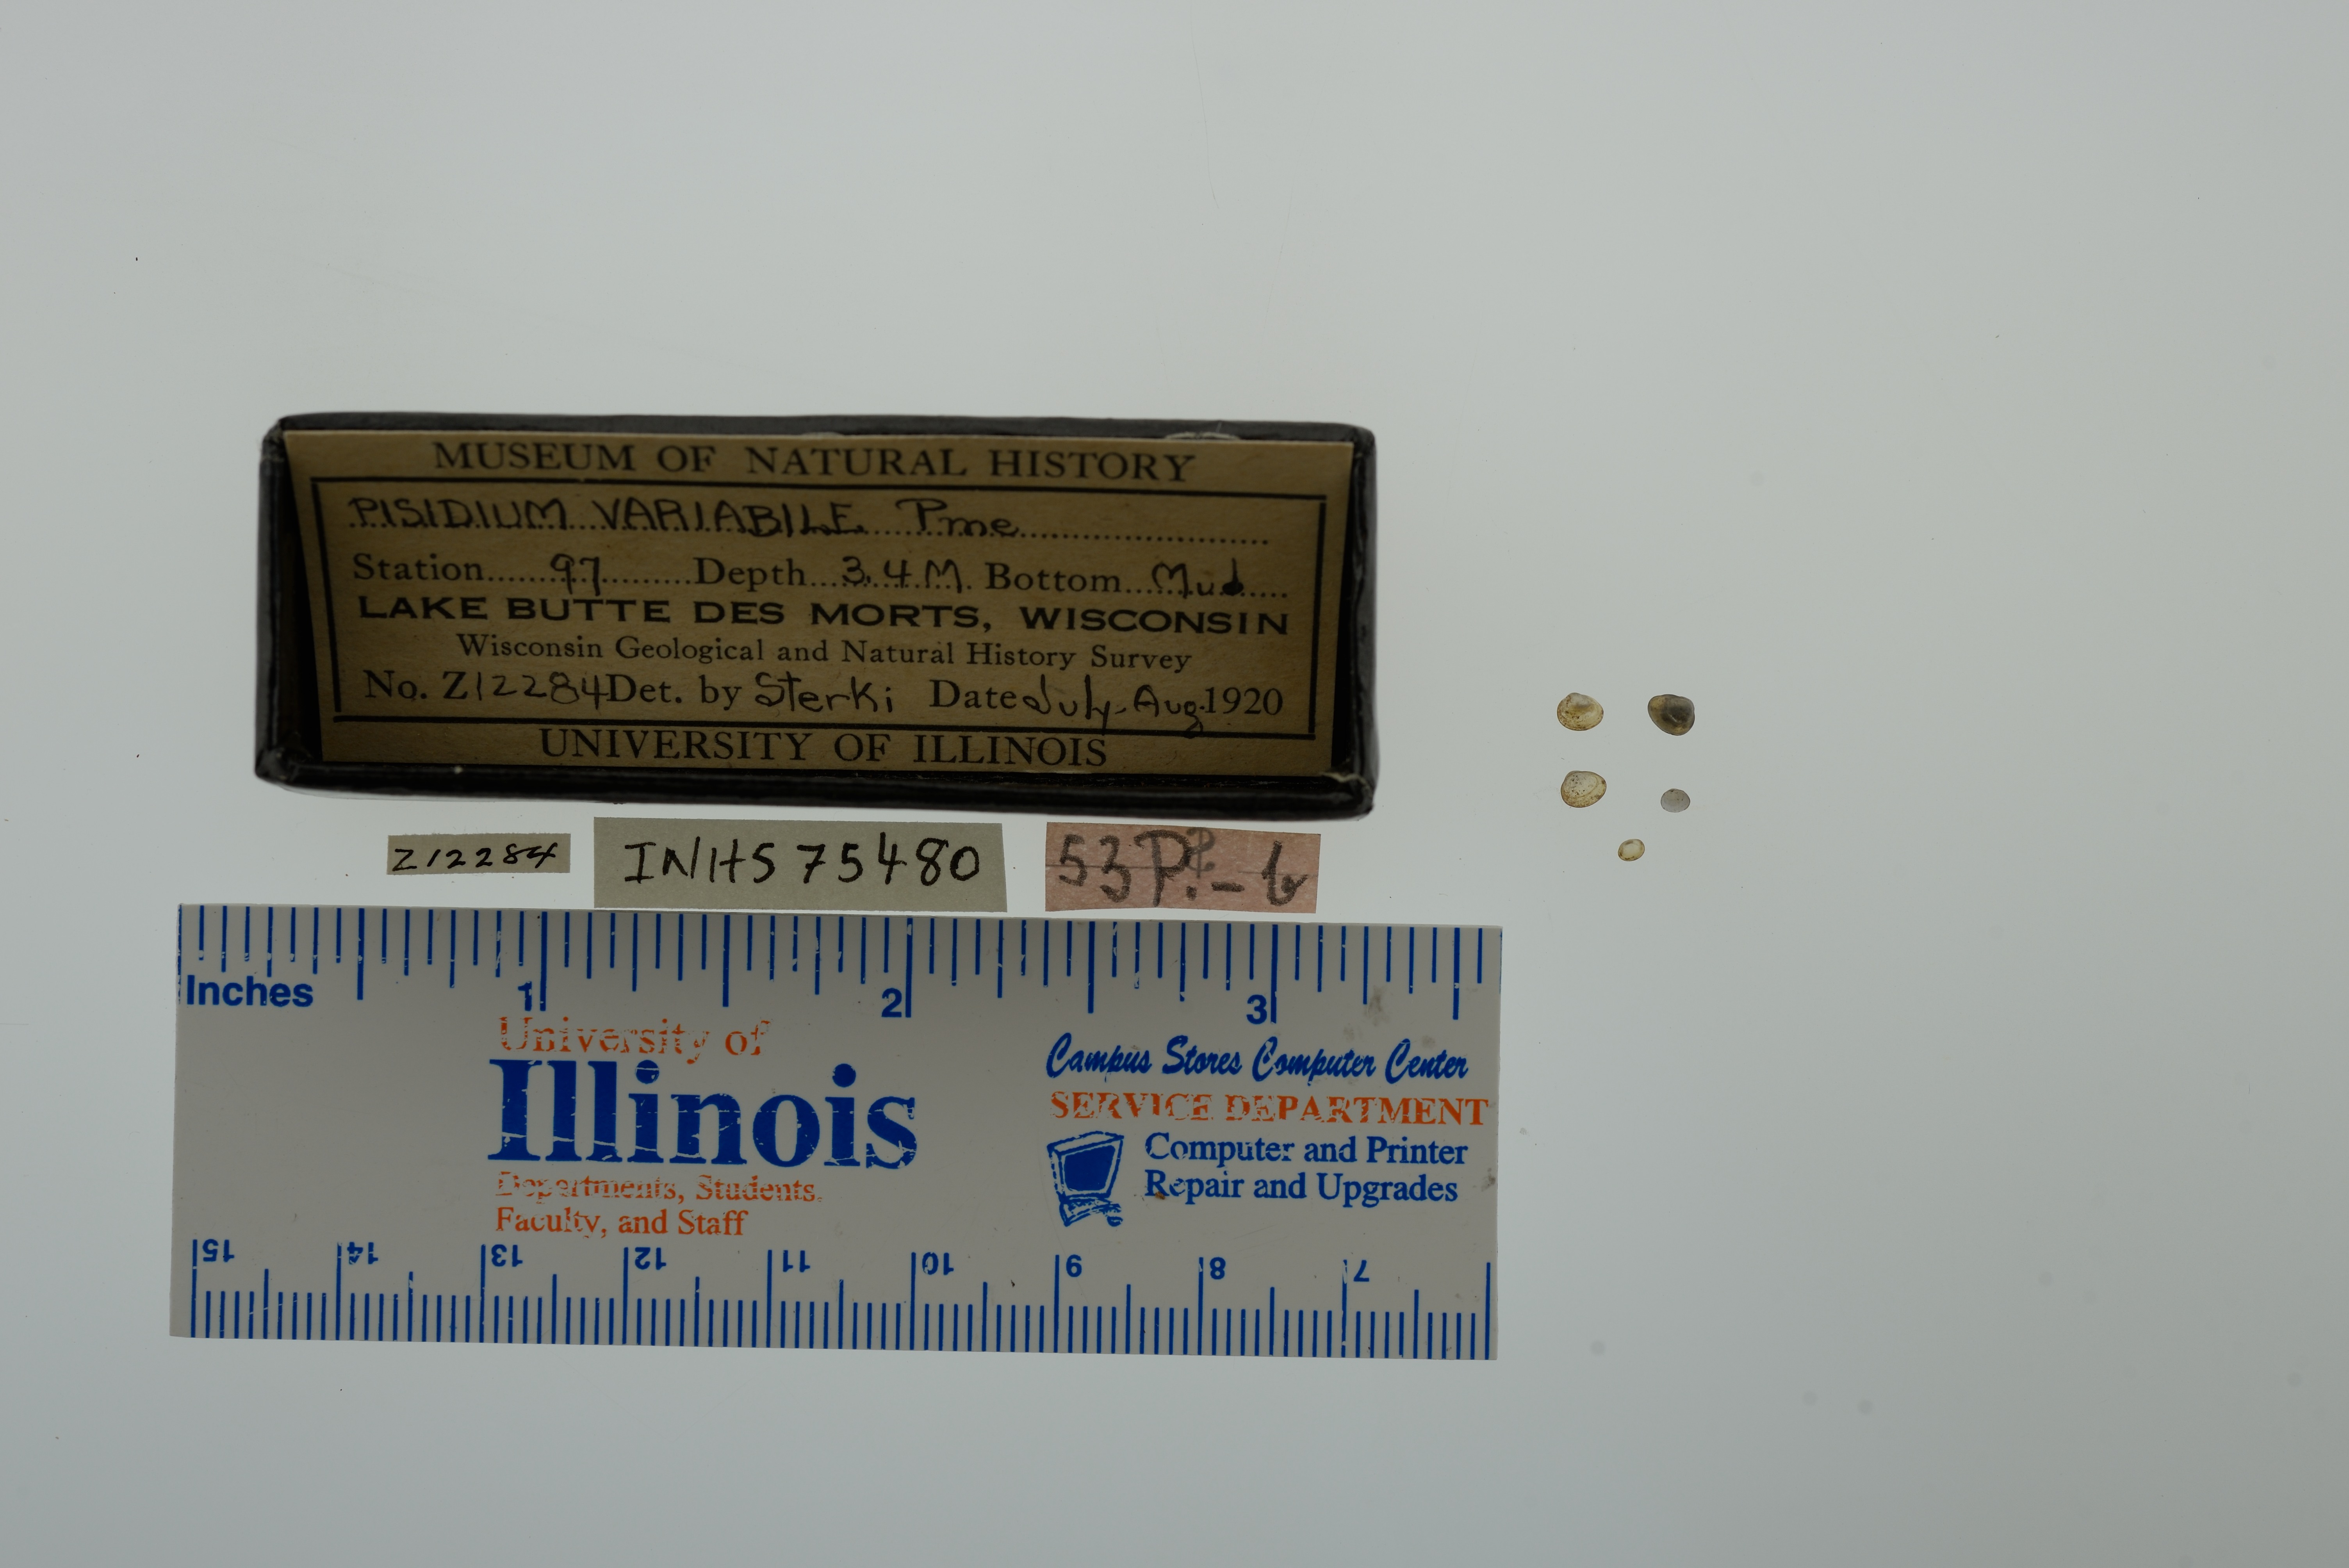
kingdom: Animalia
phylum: Mollusca
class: Bivalvia
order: Sphaeriida
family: Sphaeriidae
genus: Euglesa
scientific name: Euglesa variabilis
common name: Triangular peaclam
